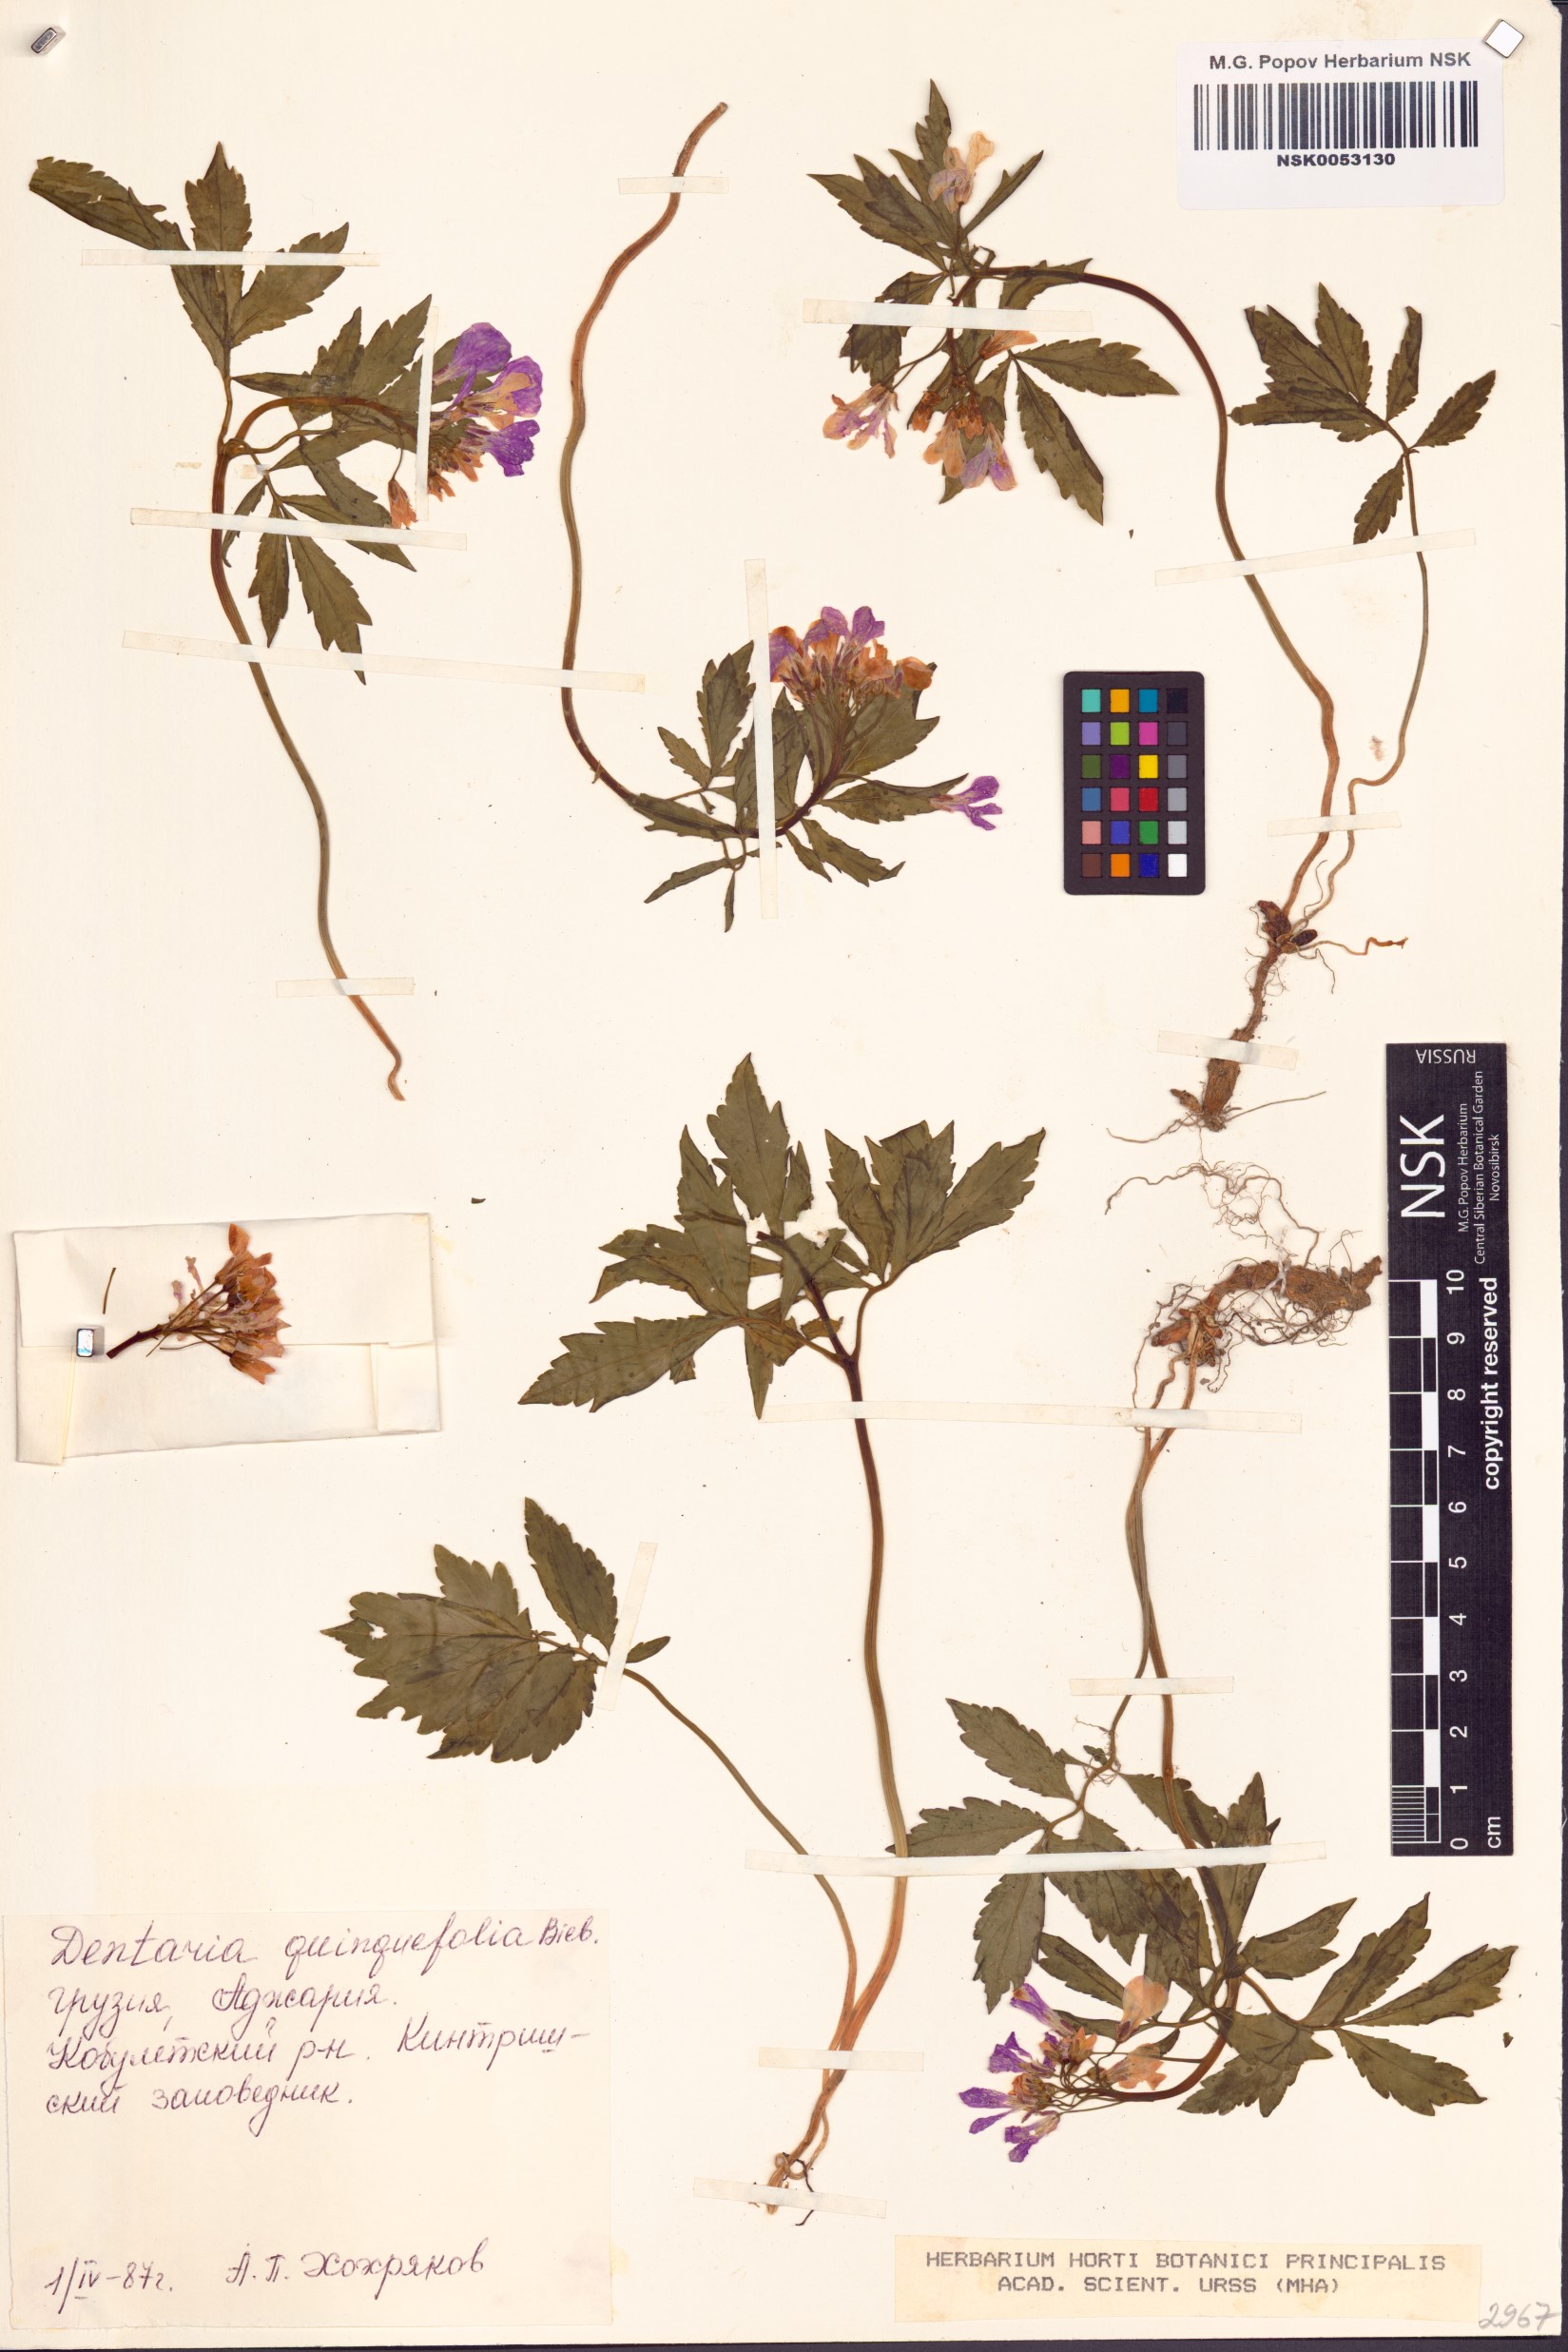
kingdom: Plantae
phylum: Tracheophyta
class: Magnoliopsida
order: Brassicales
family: Brassicaceae
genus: Cardamine
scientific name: Cardamine quinquefolia
